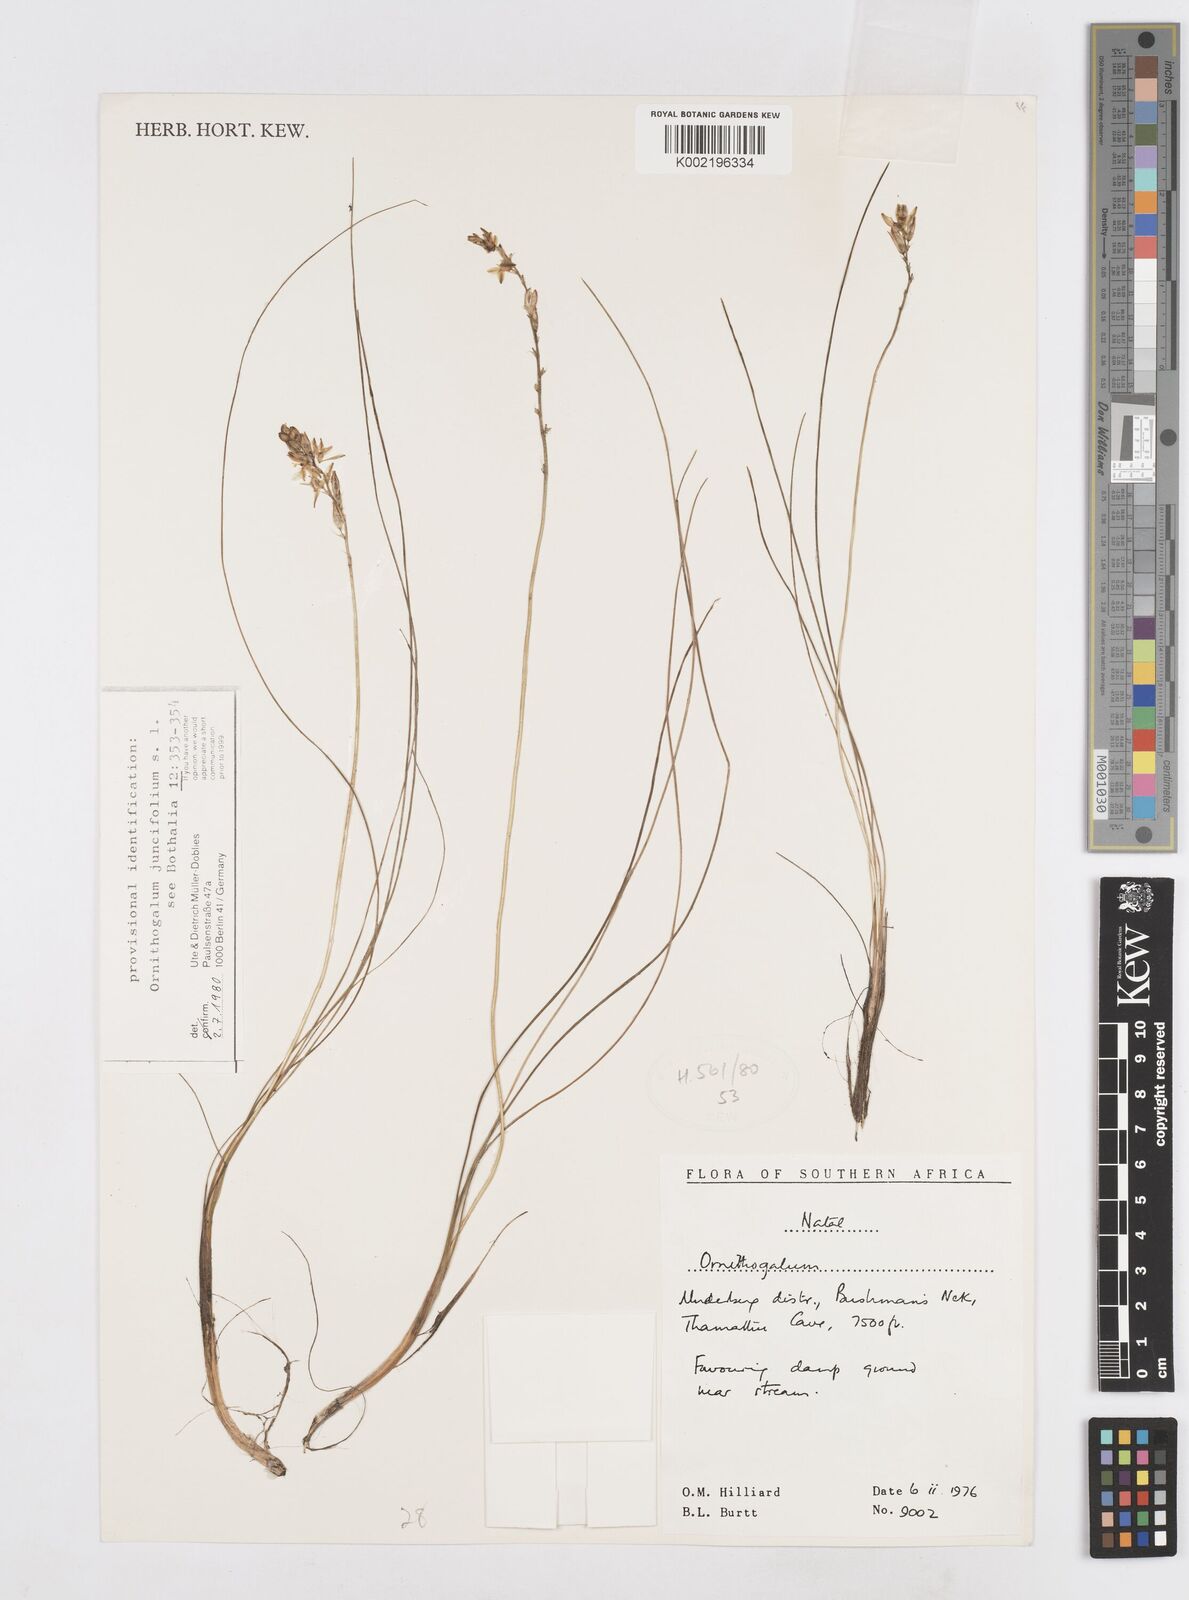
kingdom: Plantae
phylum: Tracheophyta
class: Liliopsida
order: Asparagales
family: Asparagaceae
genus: Ornithogalum
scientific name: Ornithogalum juncifolium
